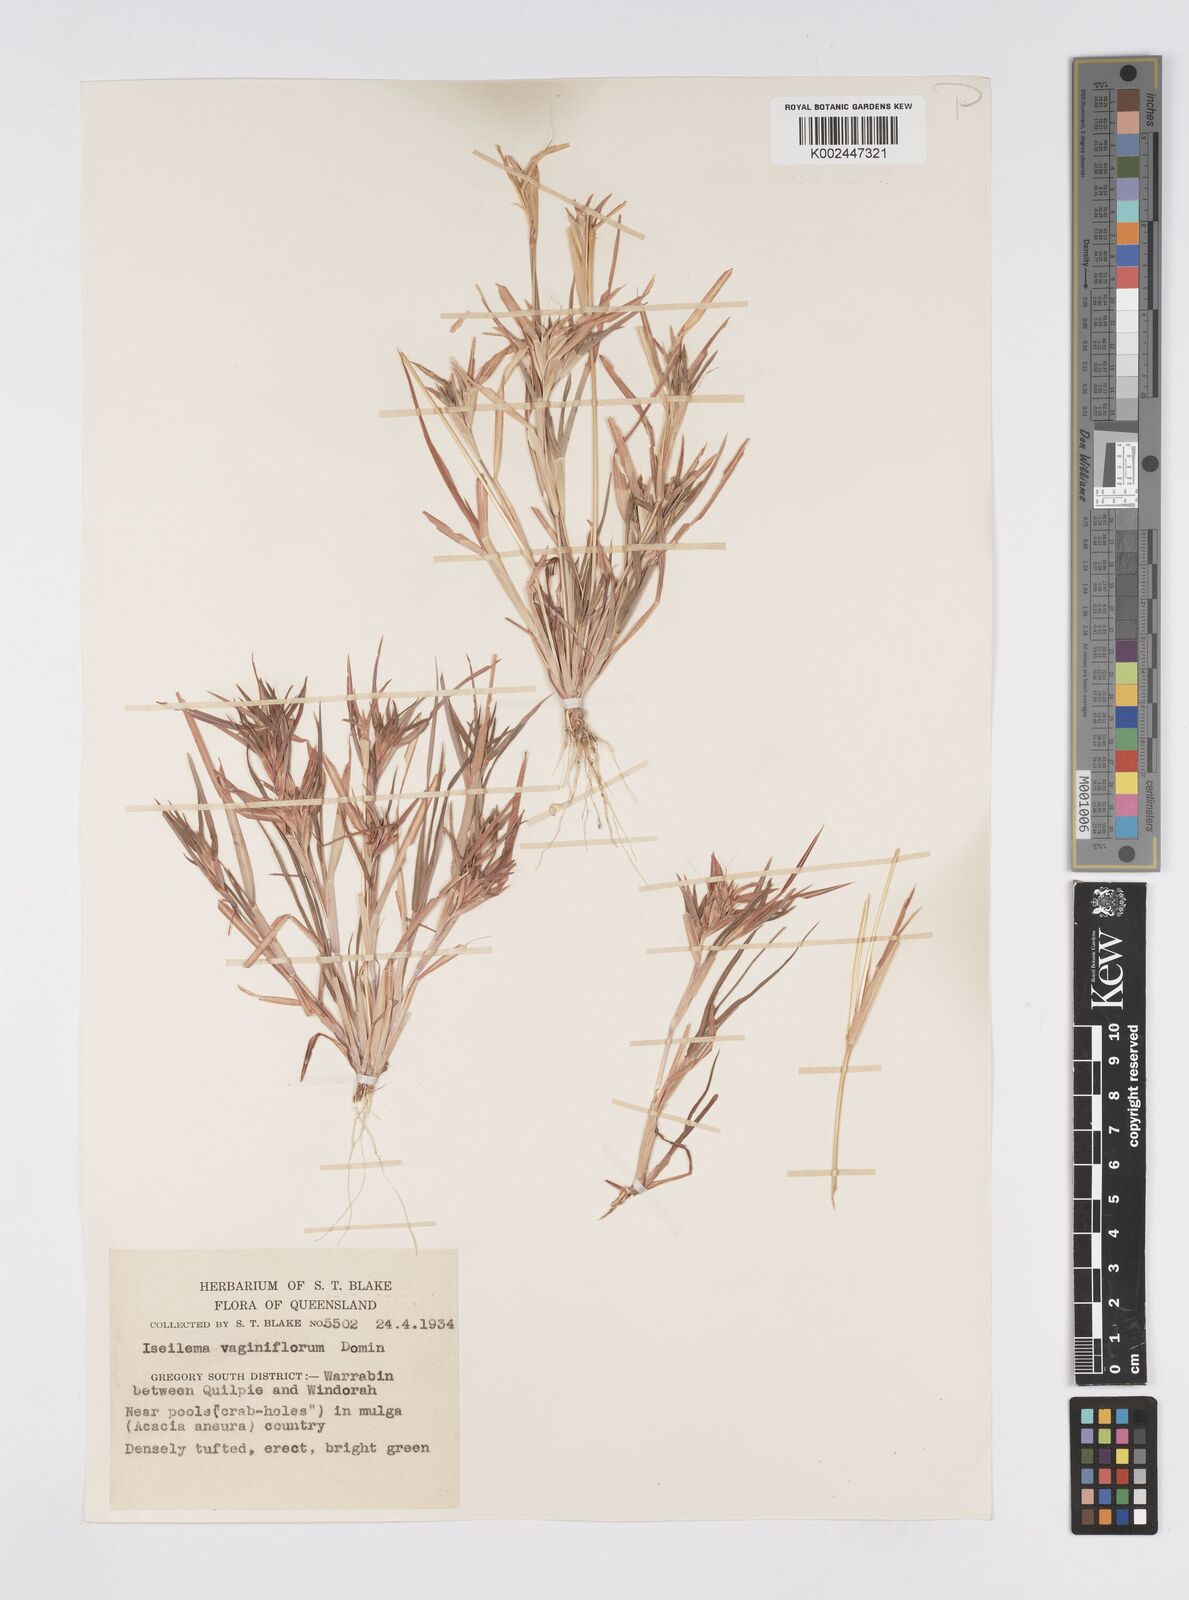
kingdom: Plantae
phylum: Tracheophyta
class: Liliopsida
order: Poales
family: Poaceae
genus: Iseilema
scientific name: Iseilema vaginiflorum
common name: Red flinders grass
